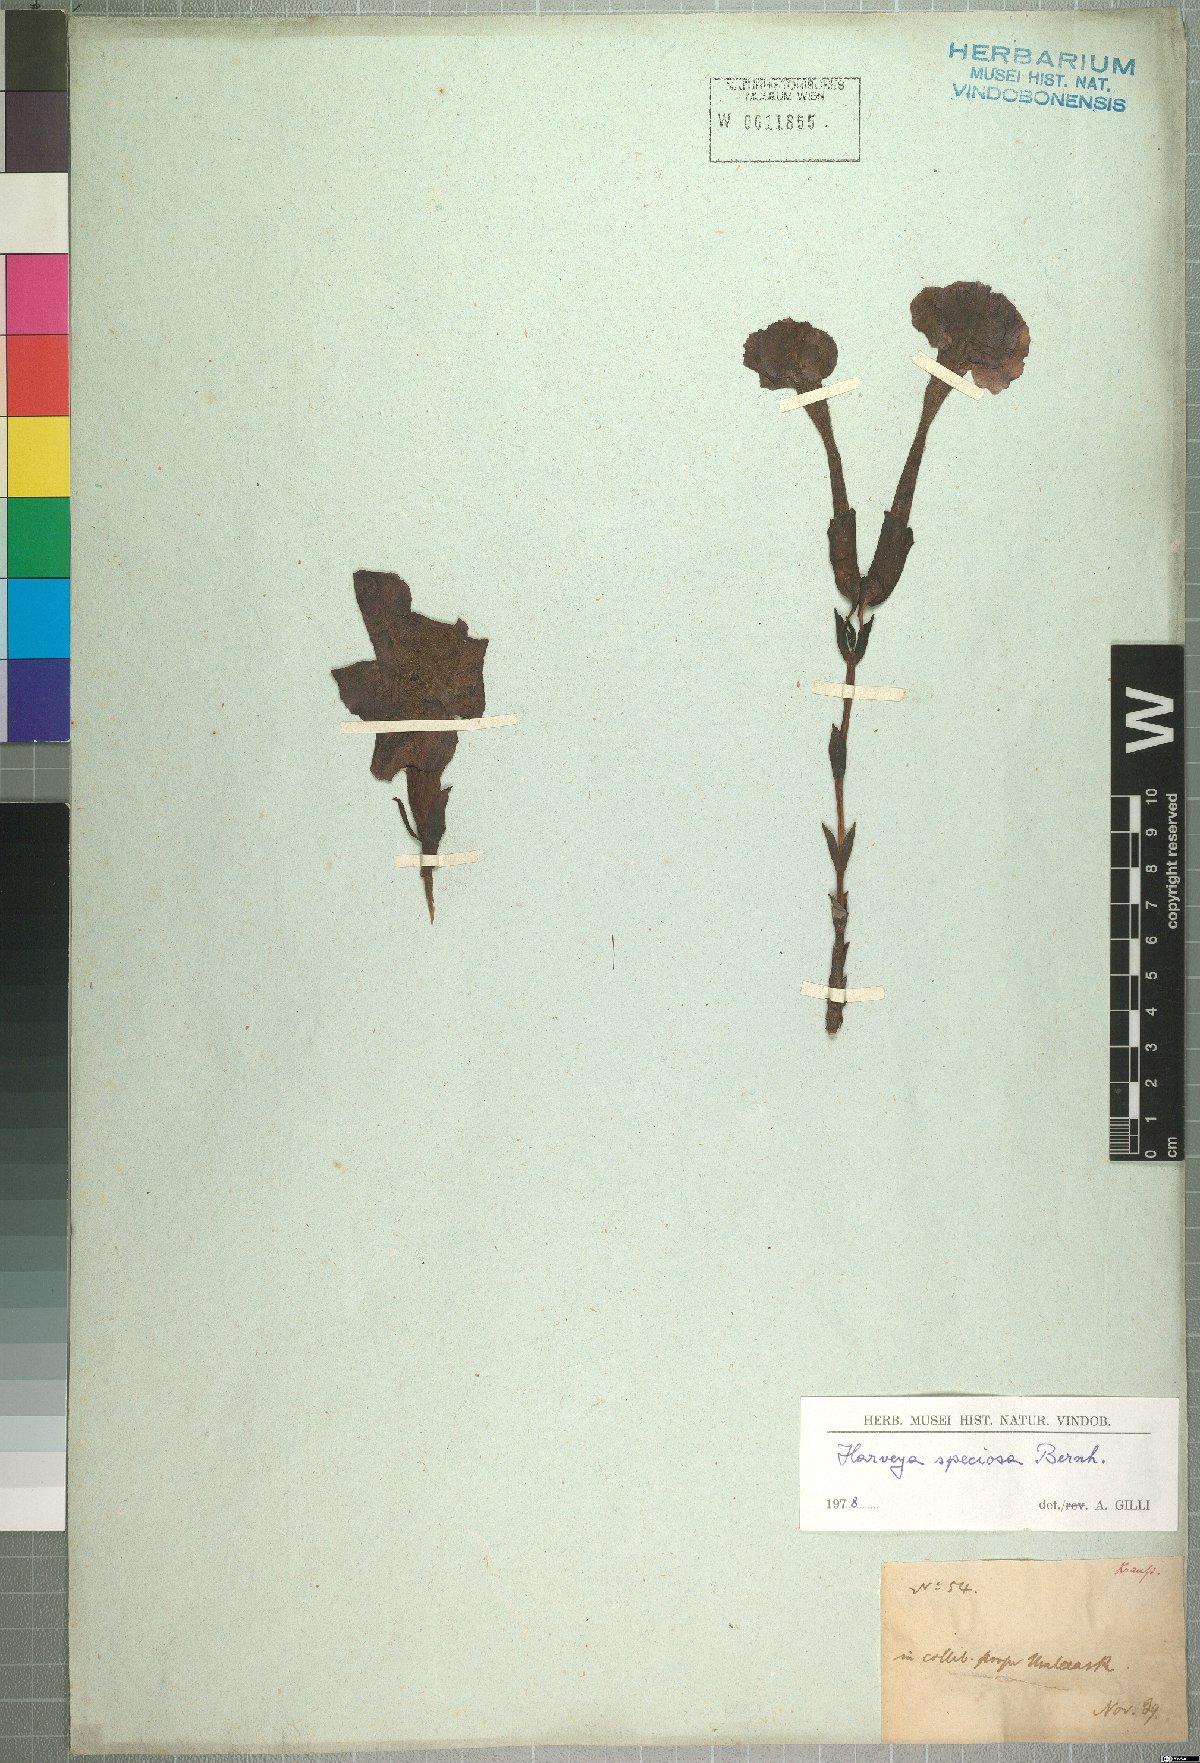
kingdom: Plantae
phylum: Tracheophyta
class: Magnoliopsida
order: Lamiales
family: Orobanchaceae
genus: Harveya
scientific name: Harveya speciosa
